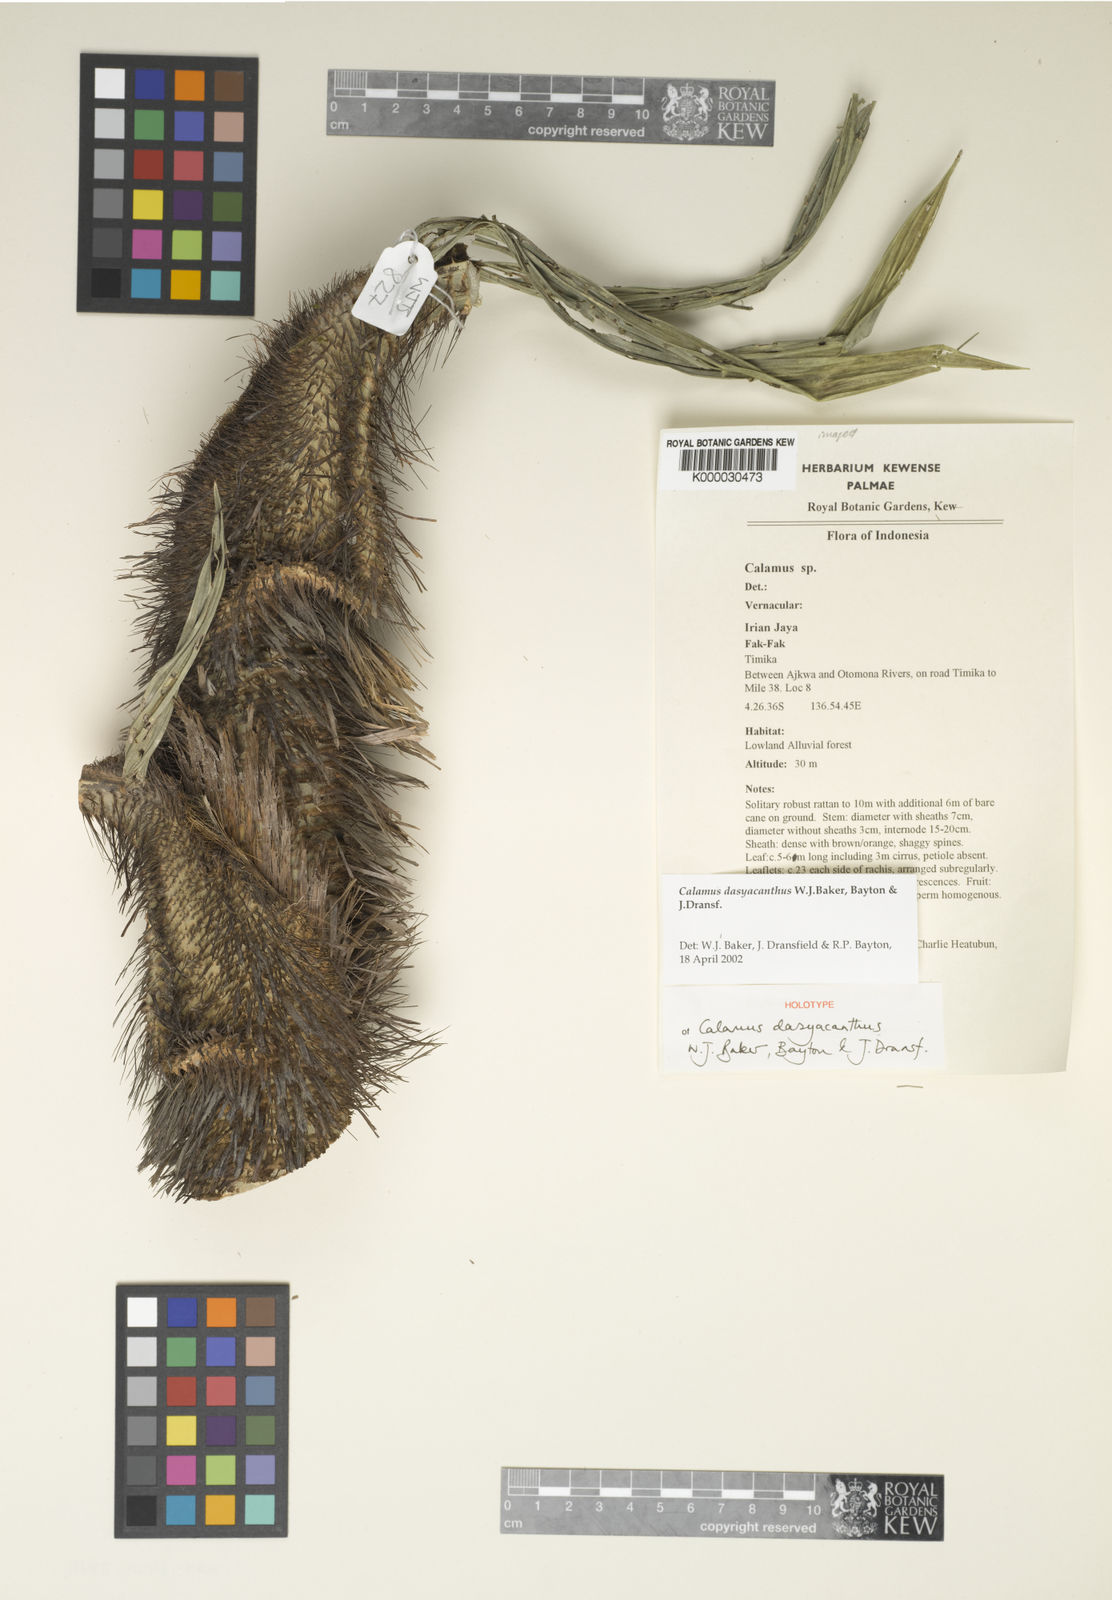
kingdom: Plantae
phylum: Tracheophyta
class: Liliopsida
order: Arecales
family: Arecaceae
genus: Calamus
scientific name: Calamus dasyacanthus
